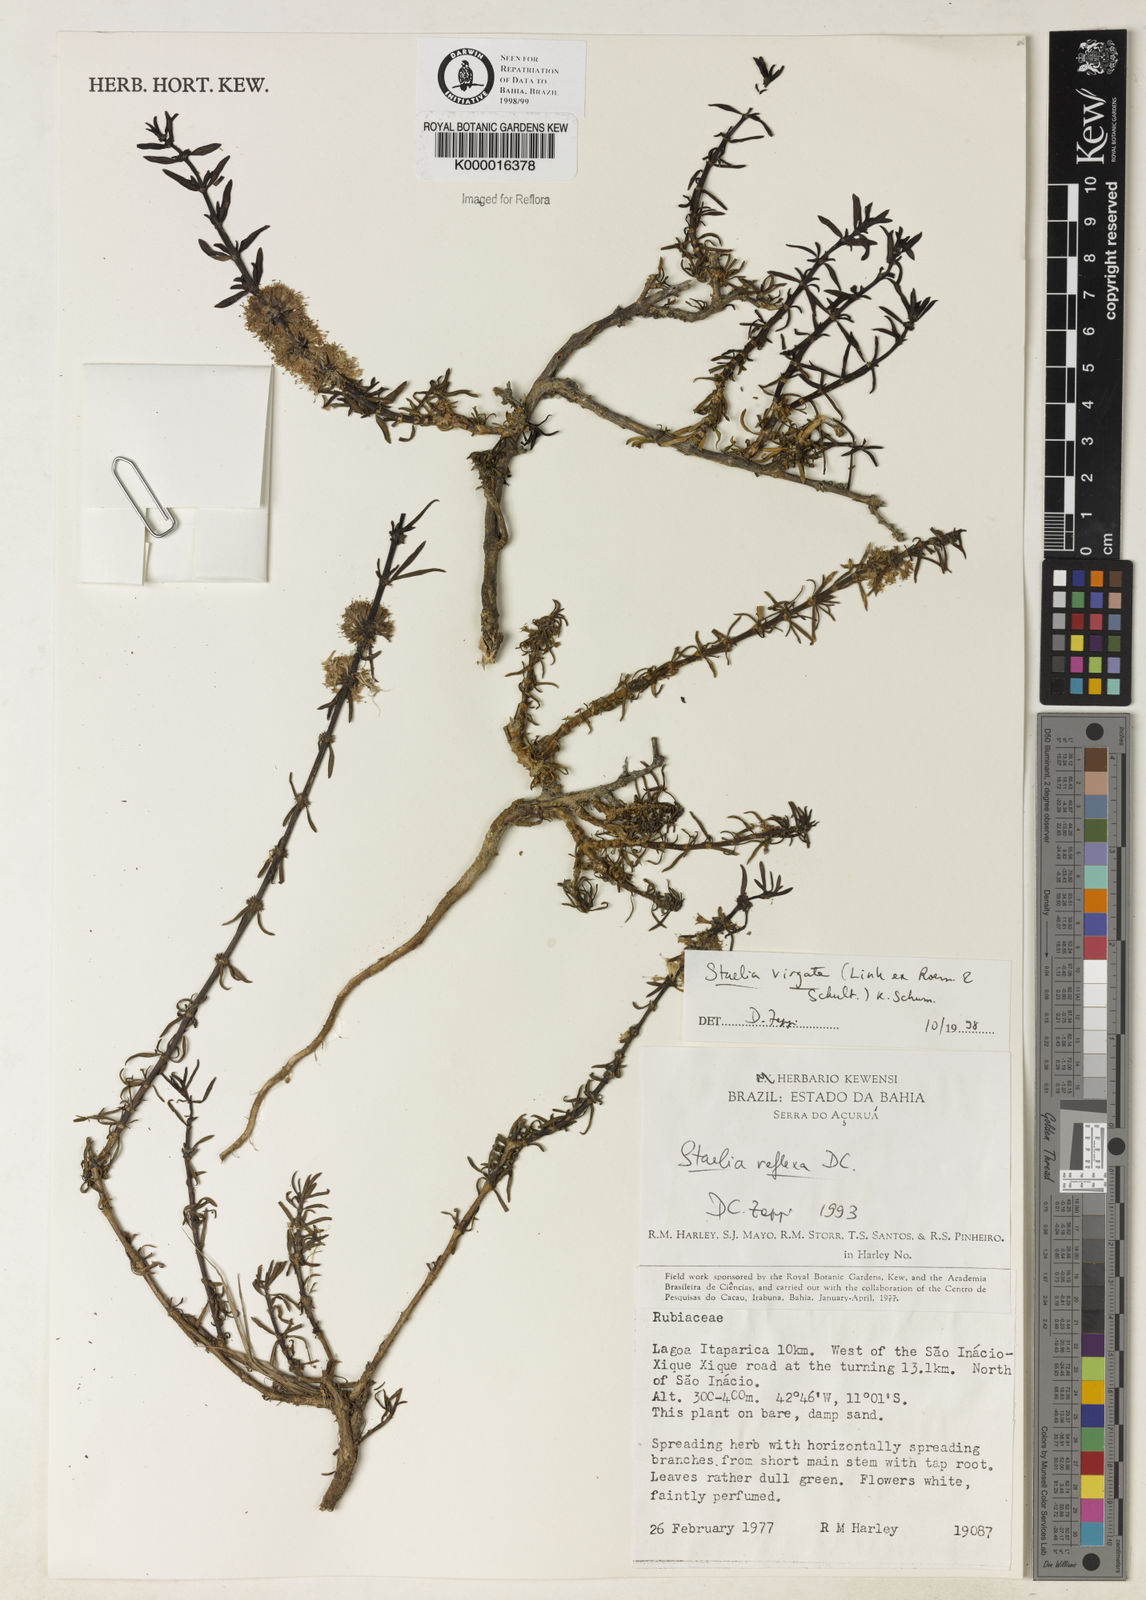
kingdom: Plantae
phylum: Tracheophyta
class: Magnoliopsida
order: Gentianales
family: Rubiaceae
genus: Staelia
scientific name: Staelia virgata
